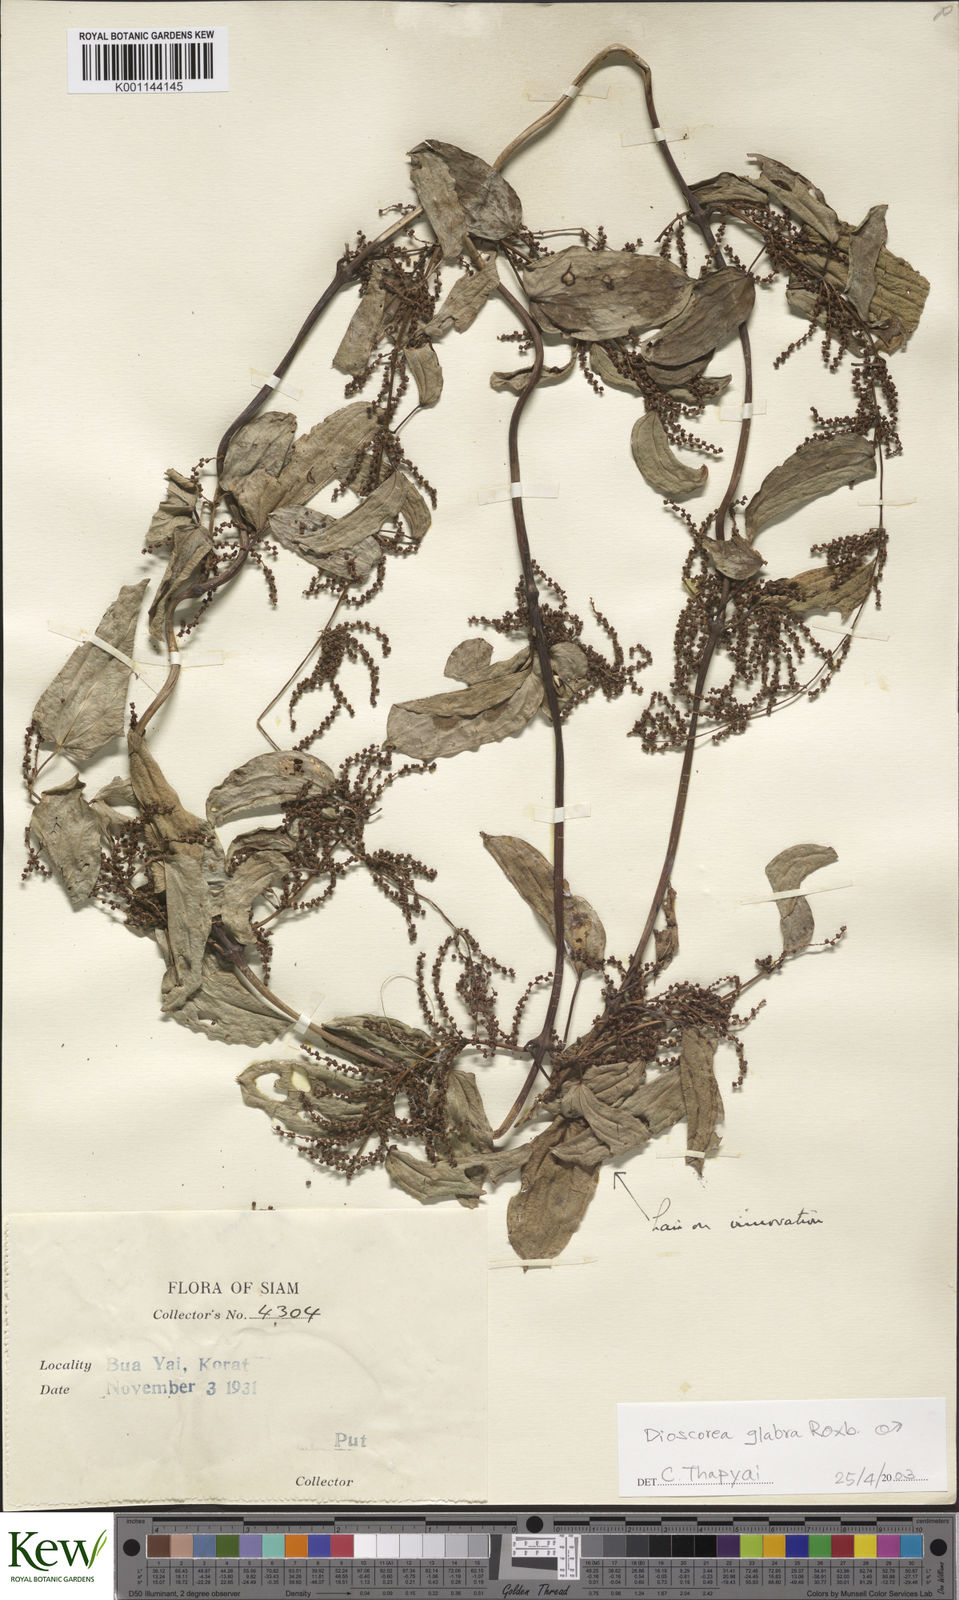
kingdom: Plantae
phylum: Tracheophyta
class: Liliopsida
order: Dioscoreales
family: Dioscoreaceae
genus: Dioscorea
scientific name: Dioscorea
